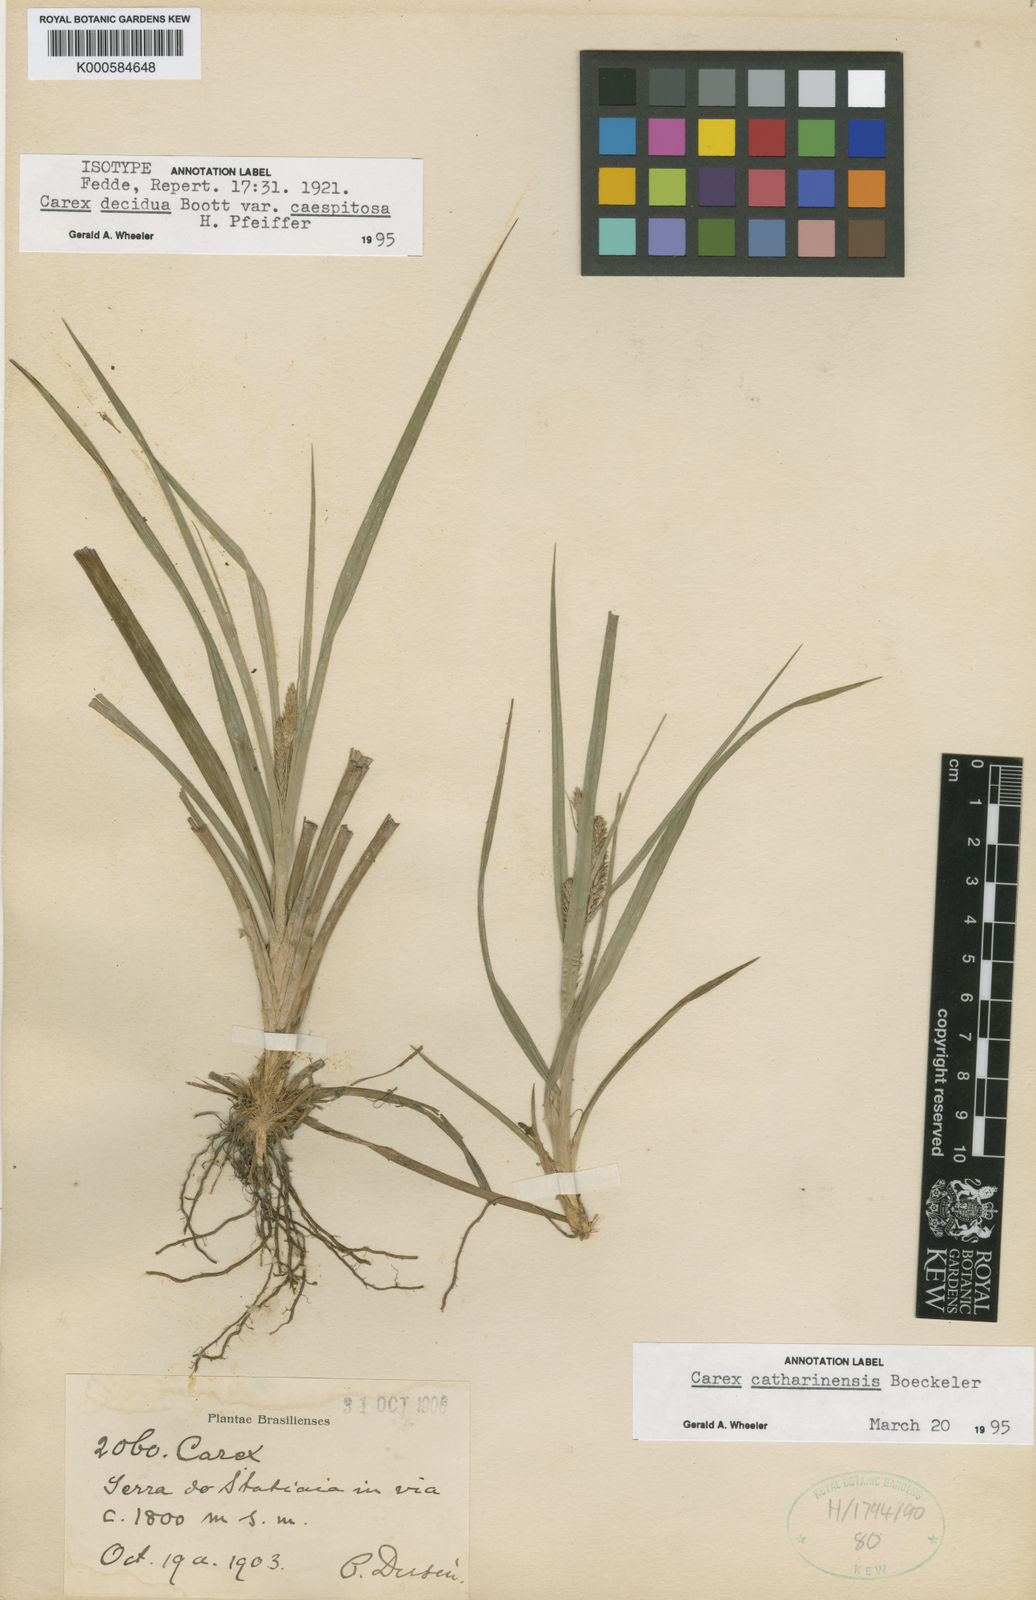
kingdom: Plantae
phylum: Tracheophyta
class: Liliopsida
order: Poales
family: Cyperaceae
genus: Carex
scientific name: Carex catharinensis
